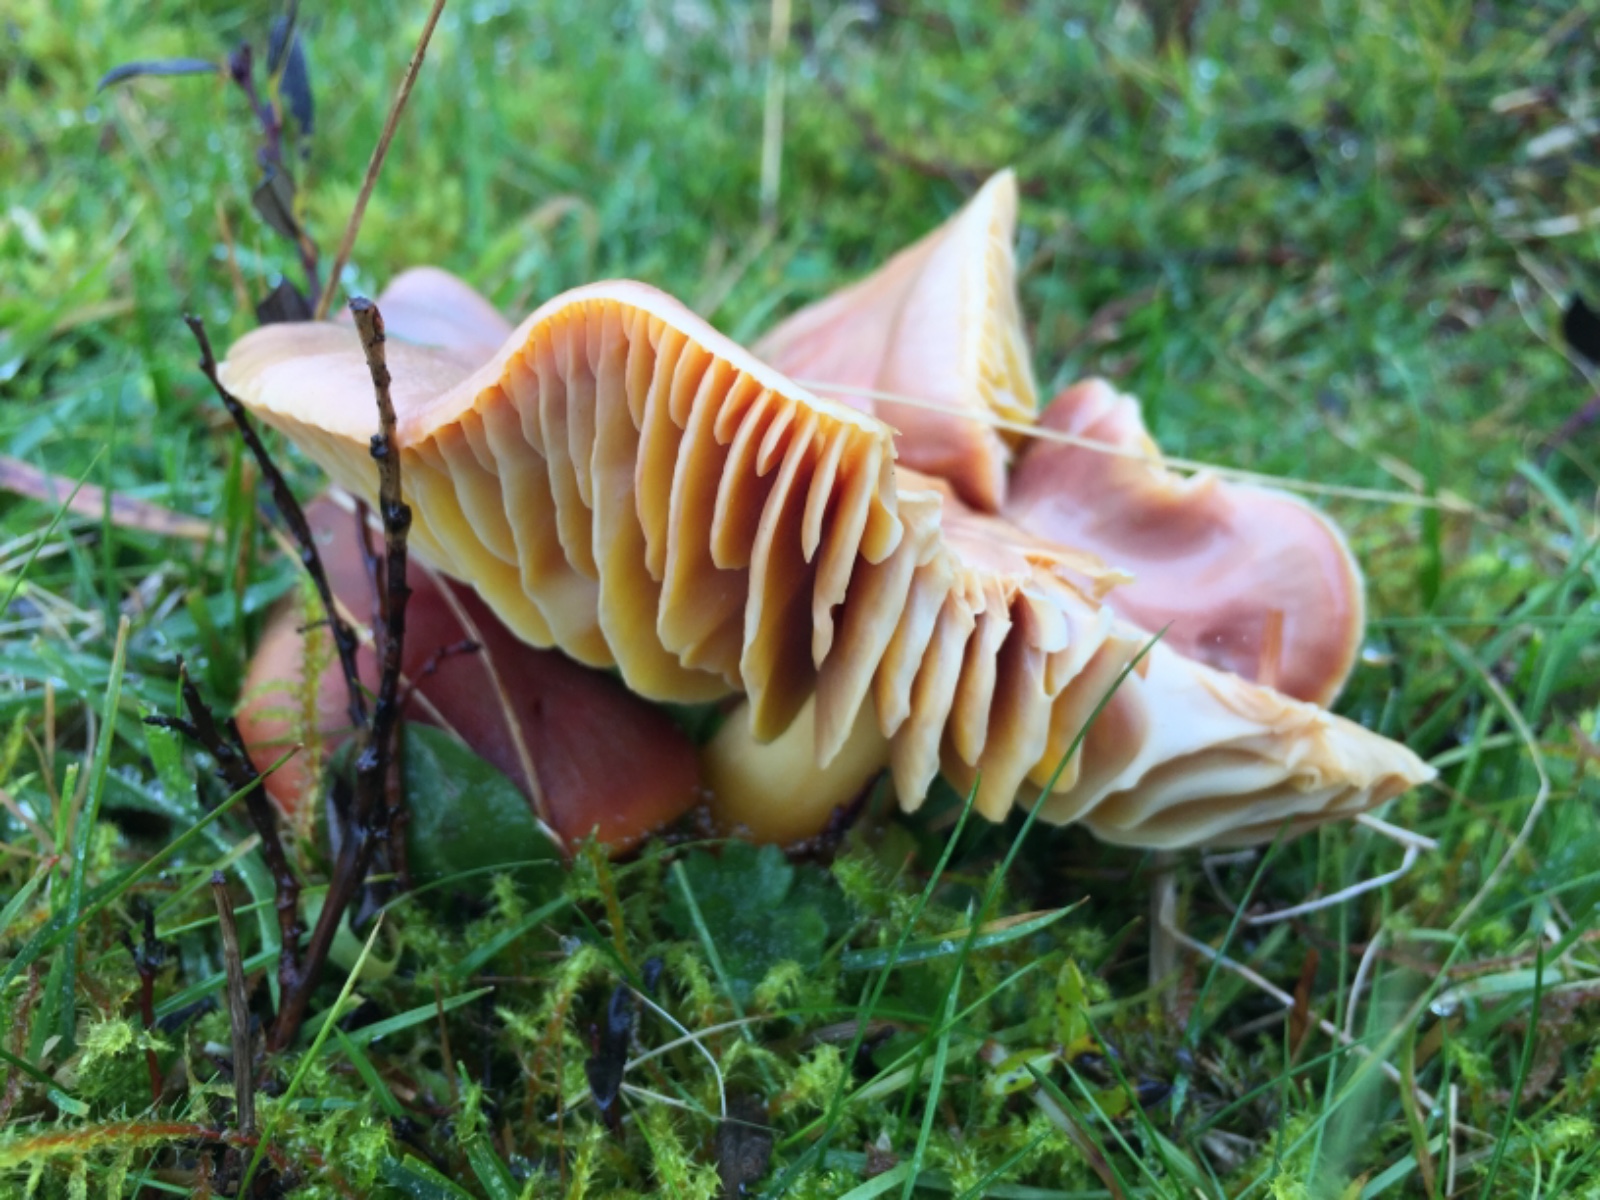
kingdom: Fungi
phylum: Basidiomycota
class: Agaricomycetes
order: Agaricales
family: Hygrophoraceae
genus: Hygrocybe
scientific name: Hygrocybe punicea
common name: skarlagen-vokshat
